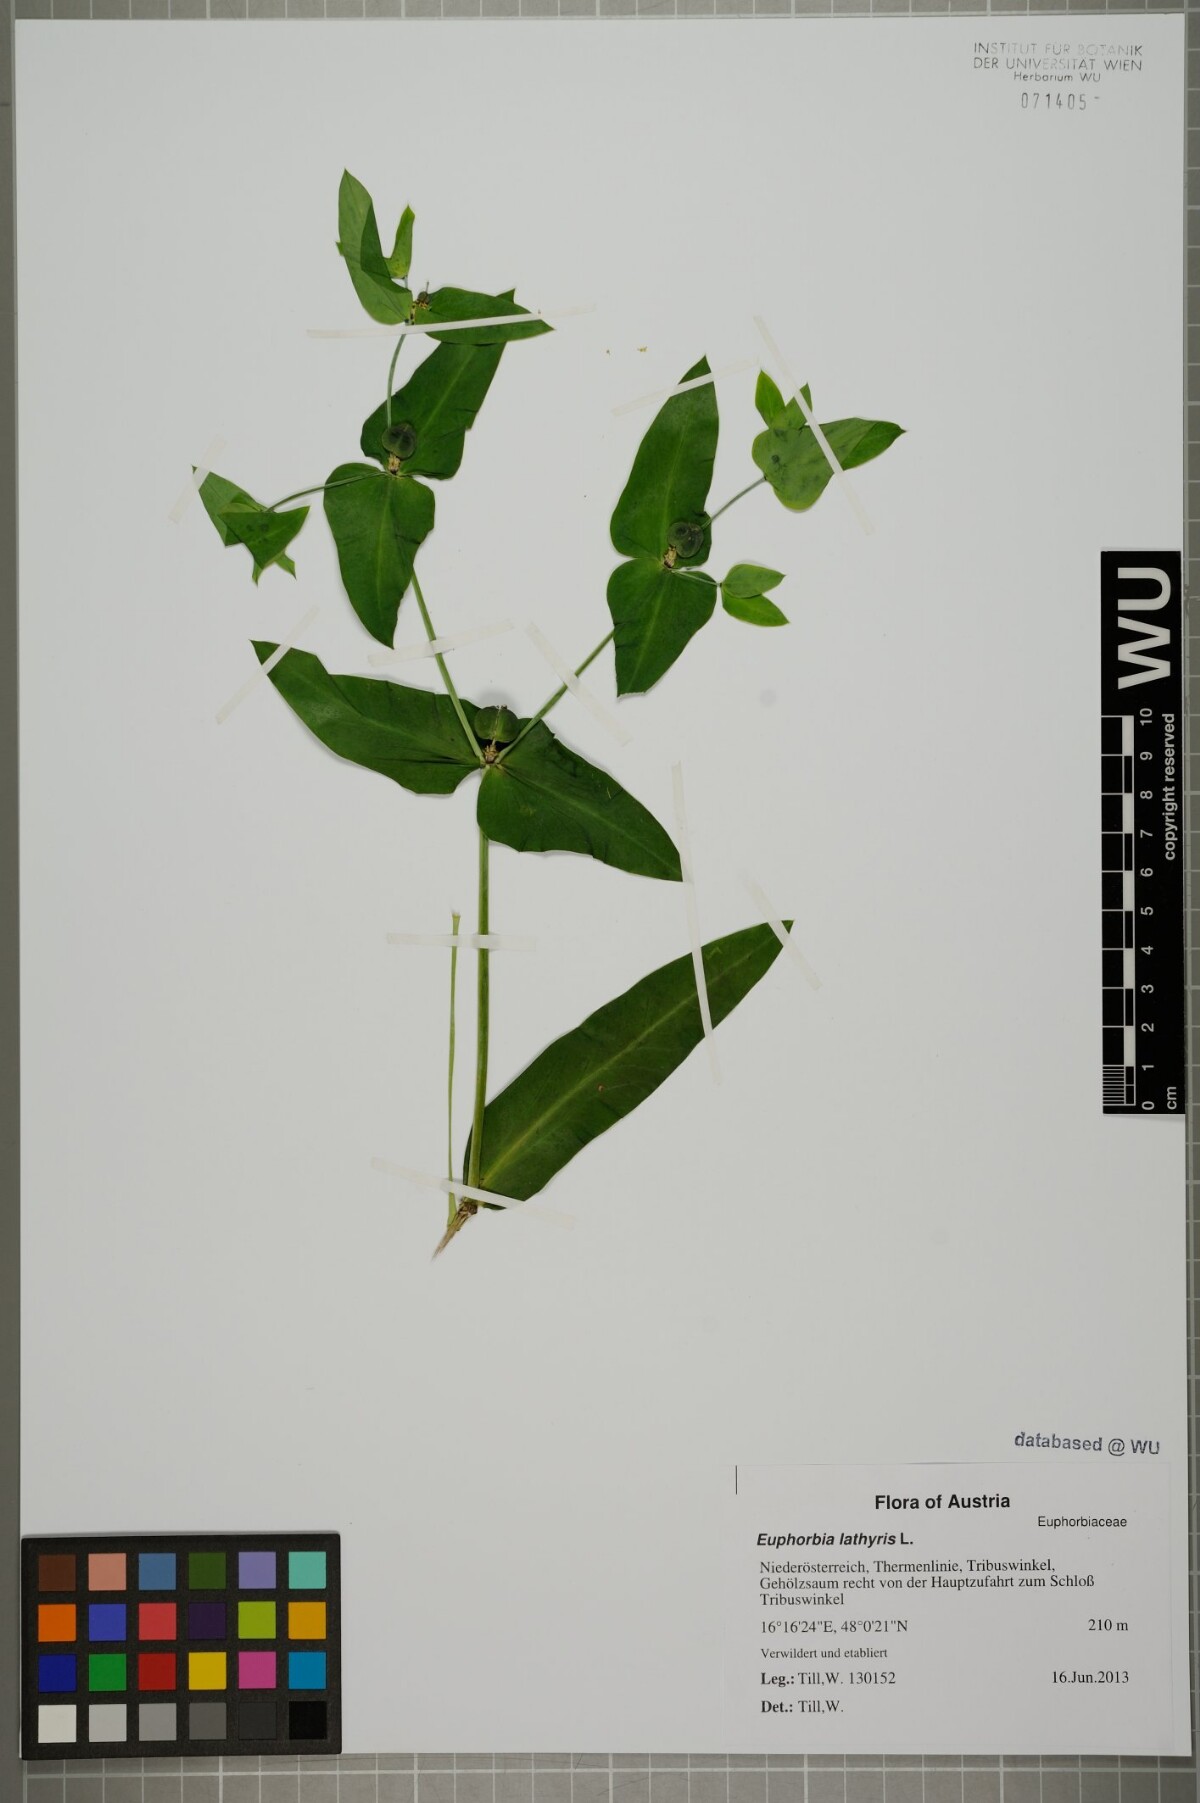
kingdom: Plantae
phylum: Tracheophyta
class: Magnoliopsida
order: Malpighiales
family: Euphorbiaceae
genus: Euphorbia
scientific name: Euphorbia lathyris
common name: Caper spurge
